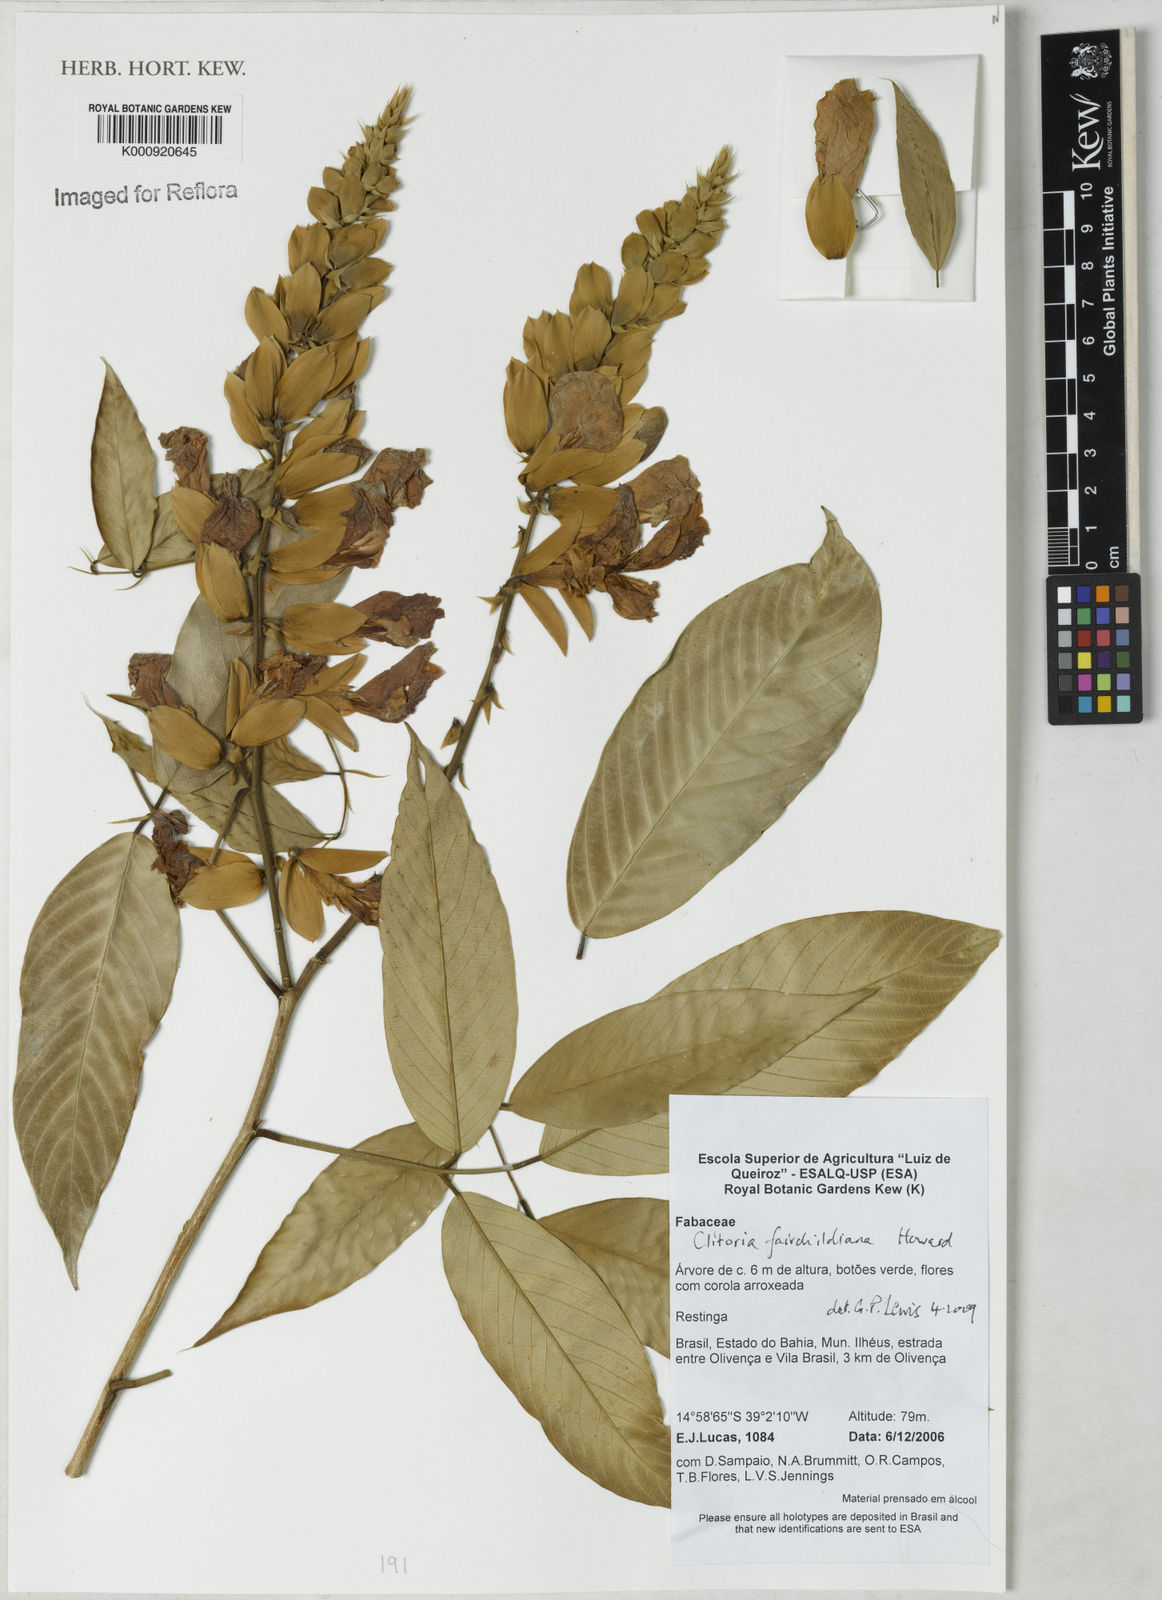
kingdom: Plantae
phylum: Tracheophyta
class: Magnoliopsida
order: Fabales
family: Fabaceae
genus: Clitoria
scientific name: Clitoria fairchildiana
